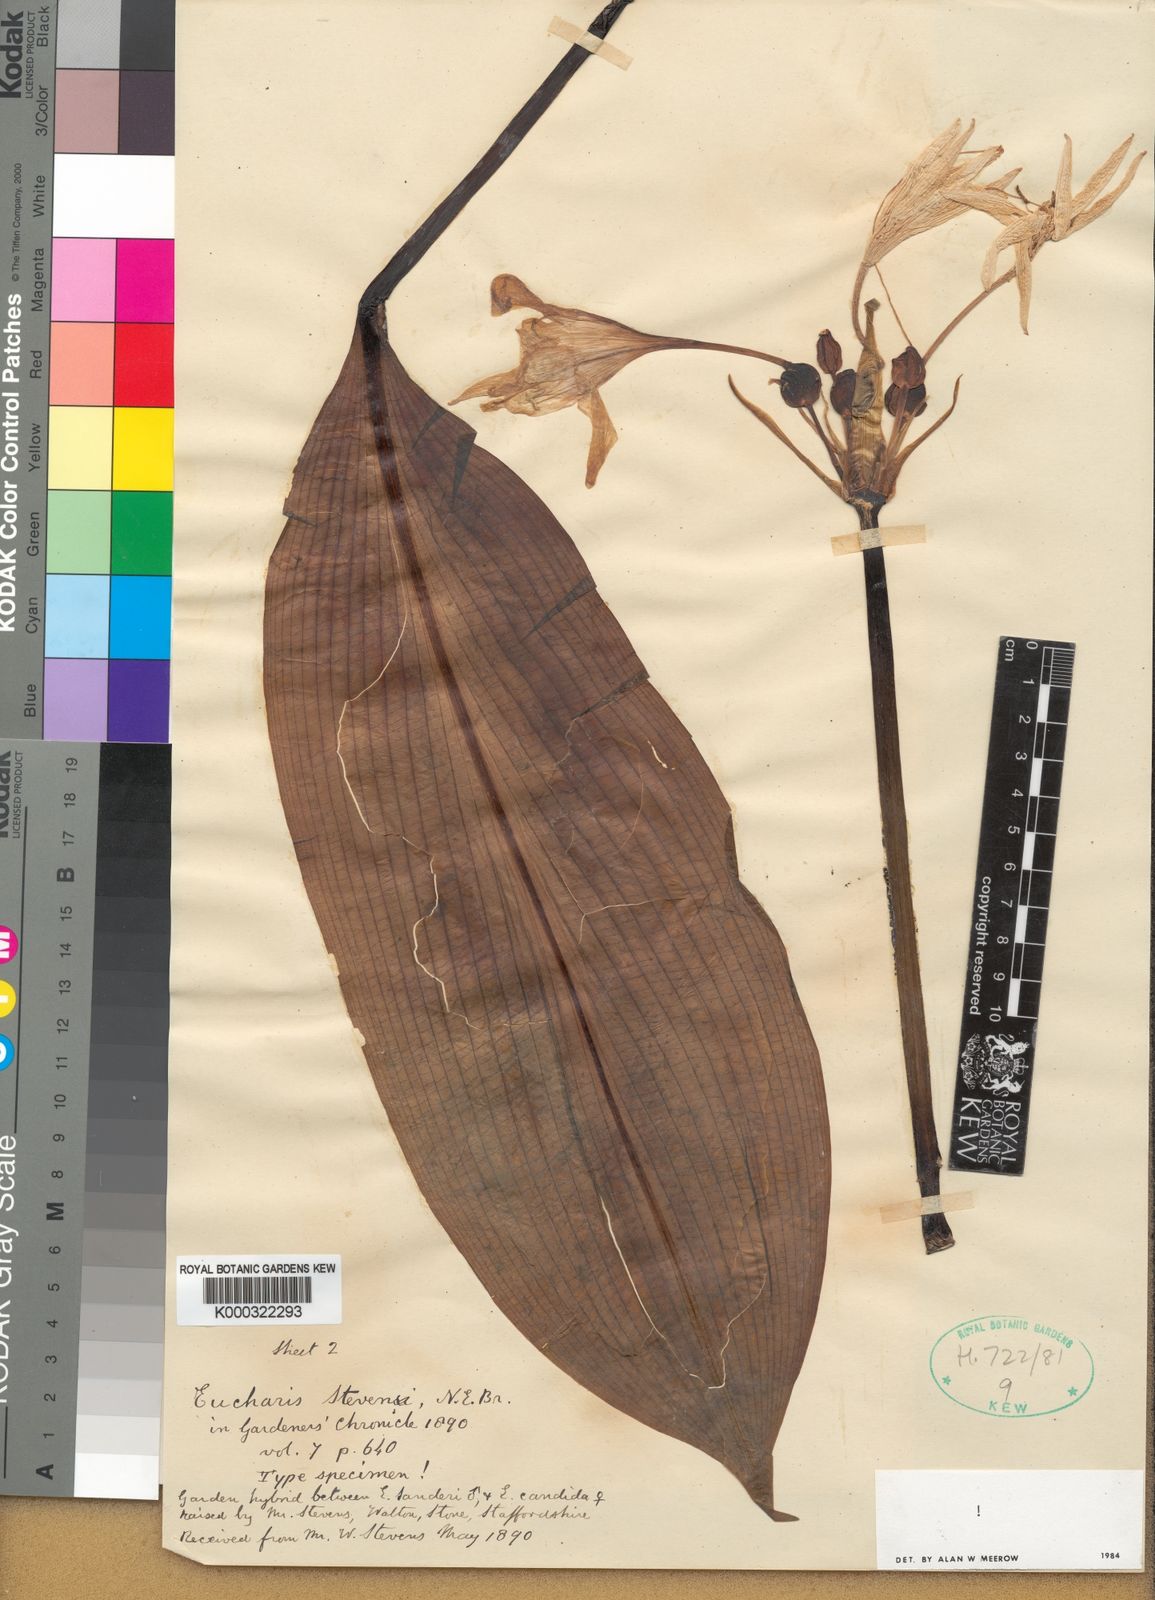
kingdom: Plantae
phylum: Tracheophyta
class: Liliopsida
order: Asparagales
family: Amaryllidaceae
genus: Urceolina
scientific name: Urceolina
